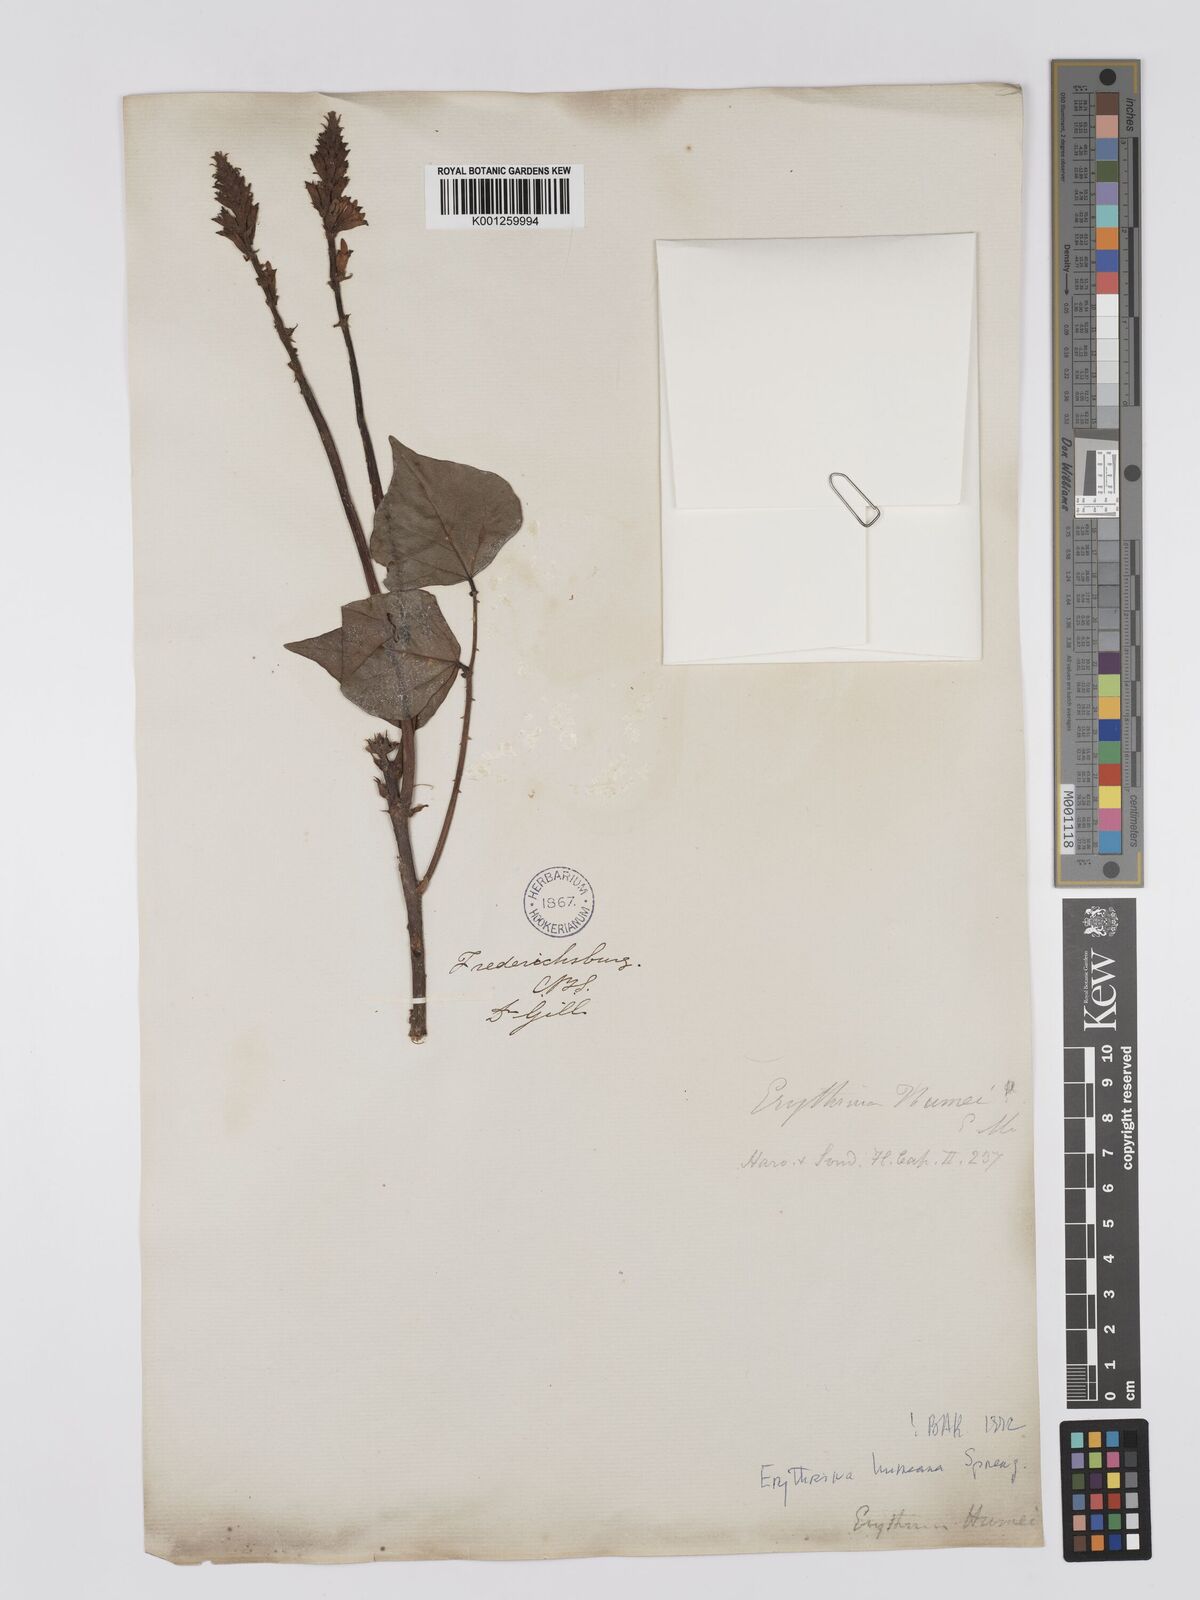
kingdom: Plantae
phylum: Tracheophyta
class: Magnoliopsida
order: Fabales
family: Fabaceae
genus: Erythrina
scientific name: Erythrina humeana
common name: Dwarf coral tree
